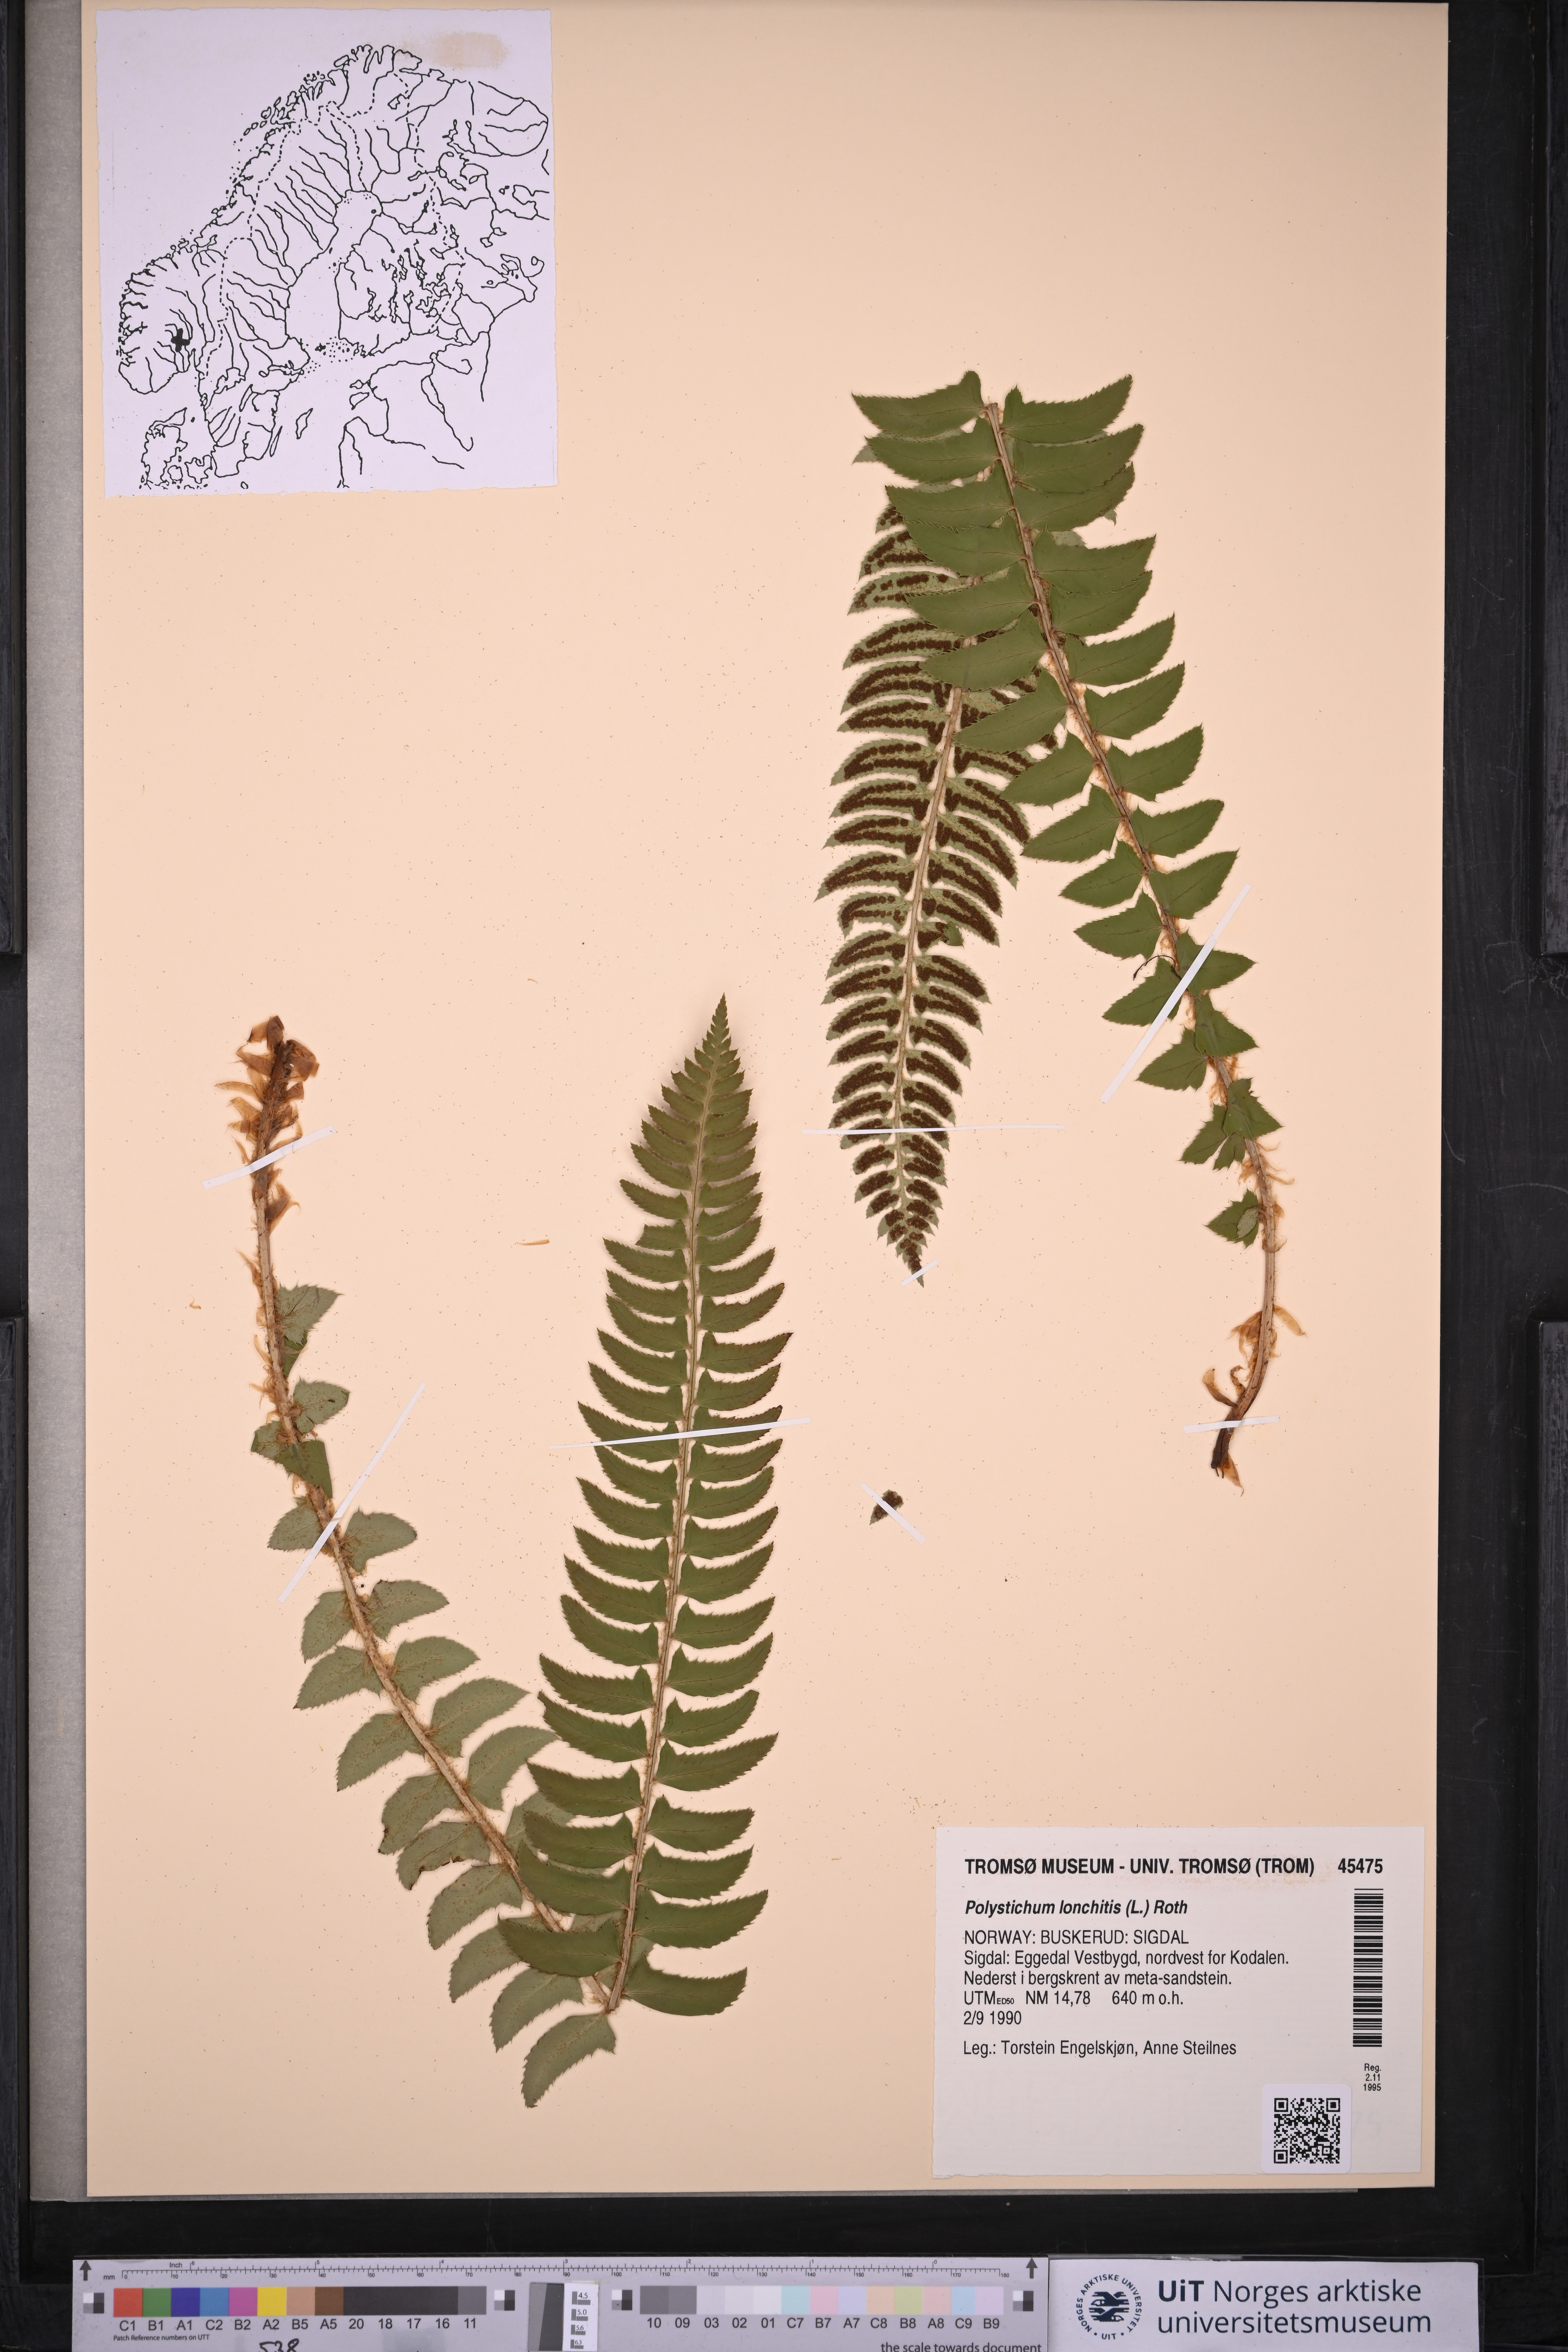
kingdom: Plantae
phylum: Tracheophyta
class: Polypodiopsida
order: Polypodiales
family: Dryopteridaceae
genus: Polystichum
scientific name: Polystichum lonchitis
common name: Holly fern
